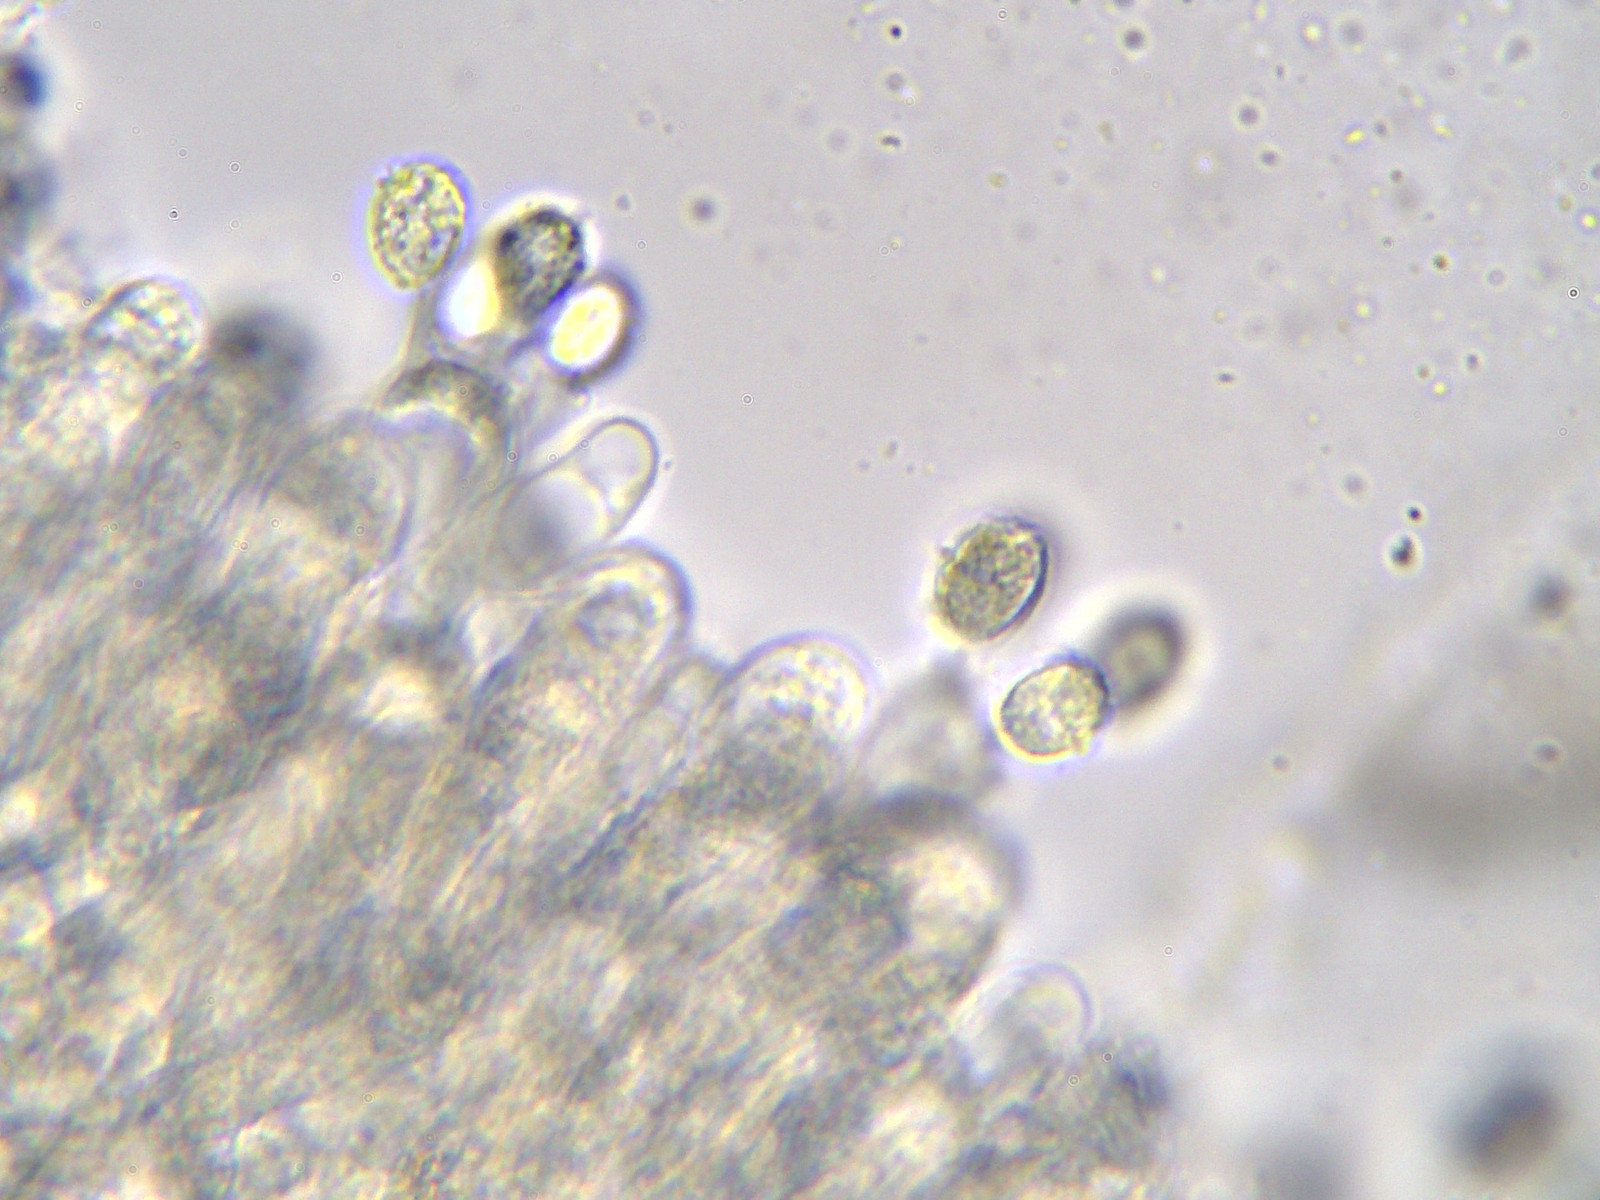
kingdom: Fungi
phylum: Basidiomycota
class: Agaricomycetes
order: Agaricales
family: Callistosporiaceae
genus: Pseudolaccaria
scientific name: Pseudolaccaria pachyphylla
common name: hvælvet tykblad
